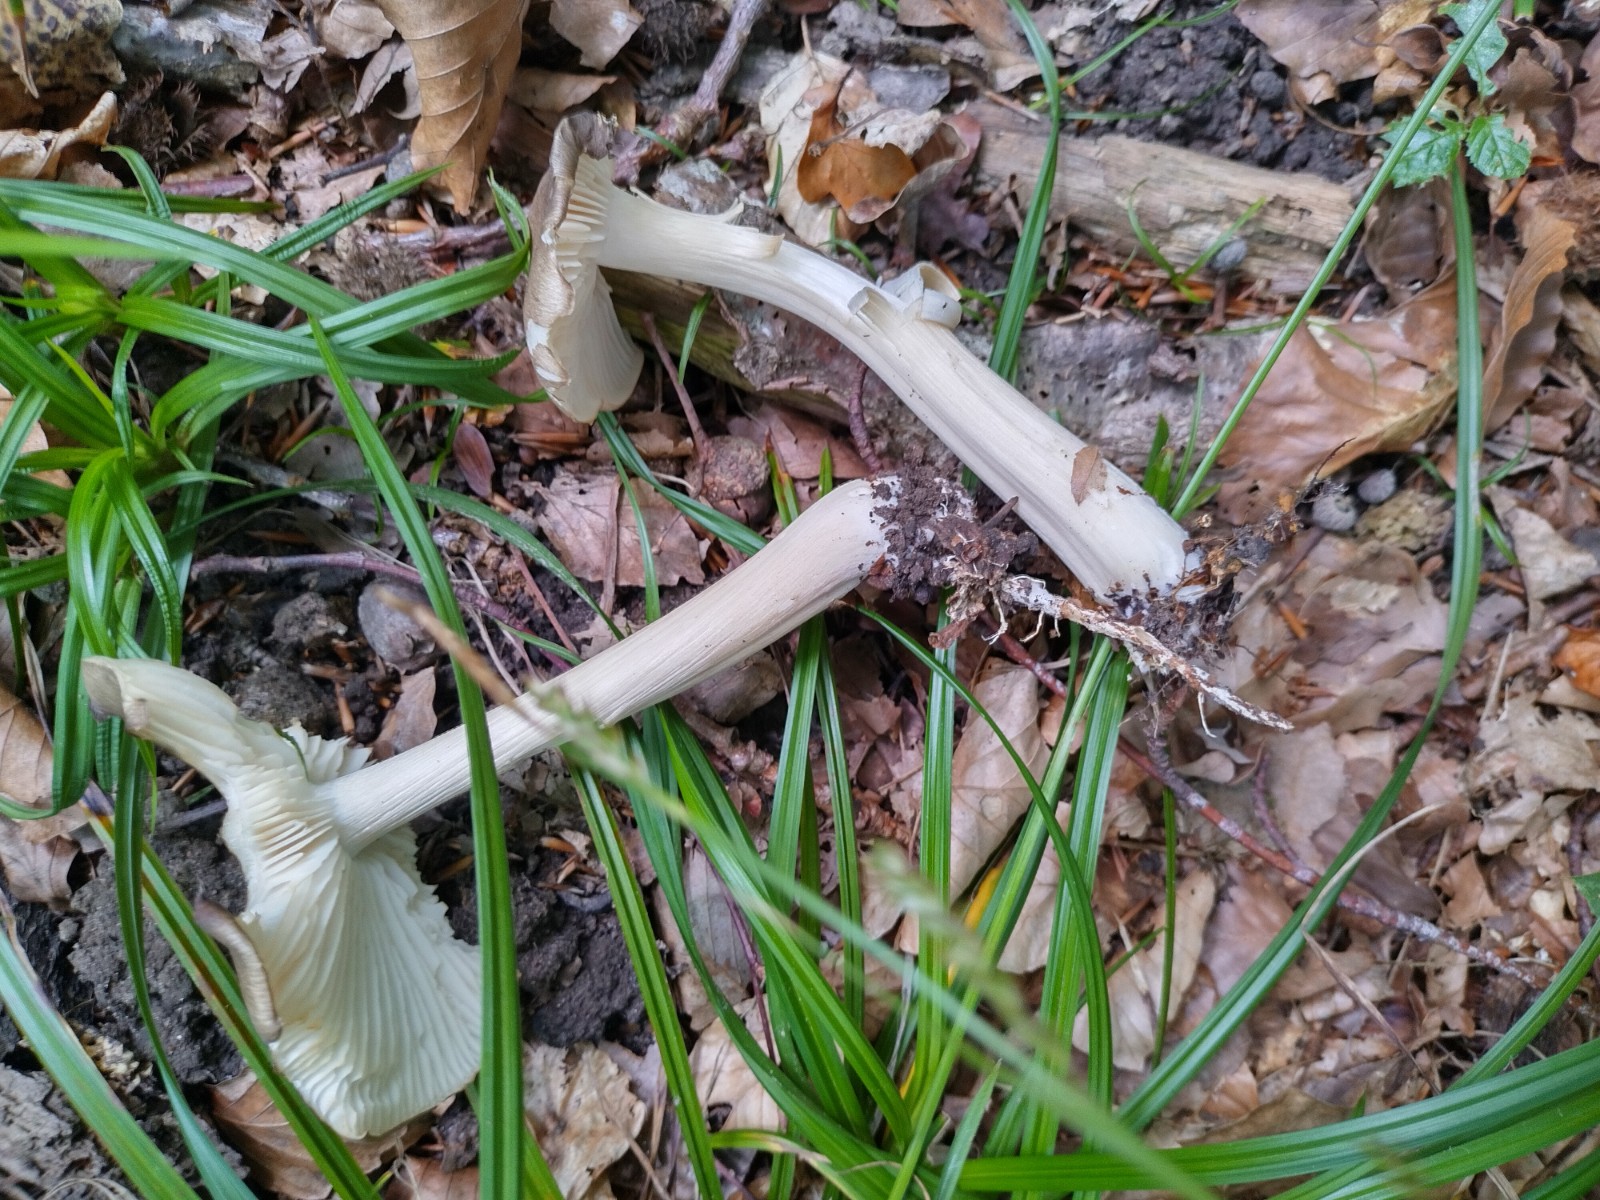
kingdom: Fungi
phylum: Basidiomycota
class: Agaricomycetes
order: Agaricales
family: Tricholomataceae
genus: Megacollybia
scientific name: Megacollybia platyphylla
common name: bredbladet væbnerhat
